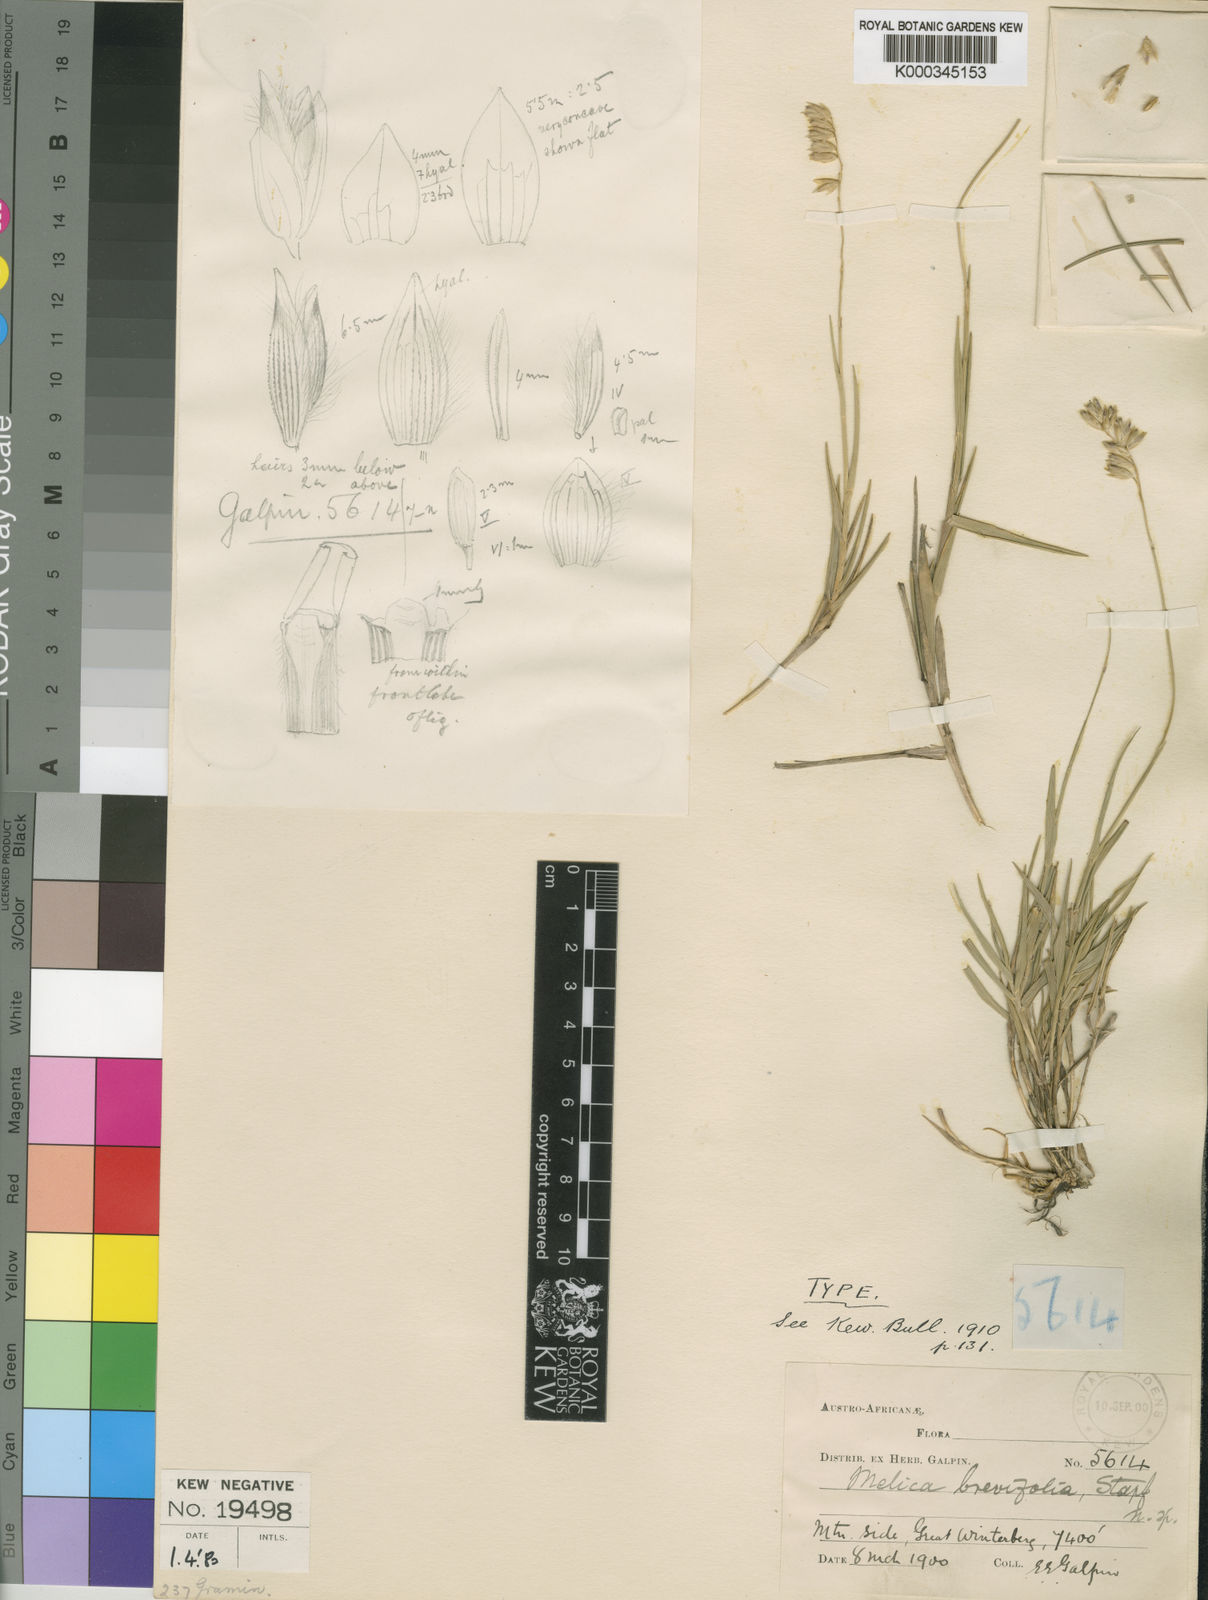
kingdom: Plantae
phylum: Tracheophyta
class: Liliopsida
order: Poales
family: Poaceae
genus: Melica
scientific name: Melica racemosa
